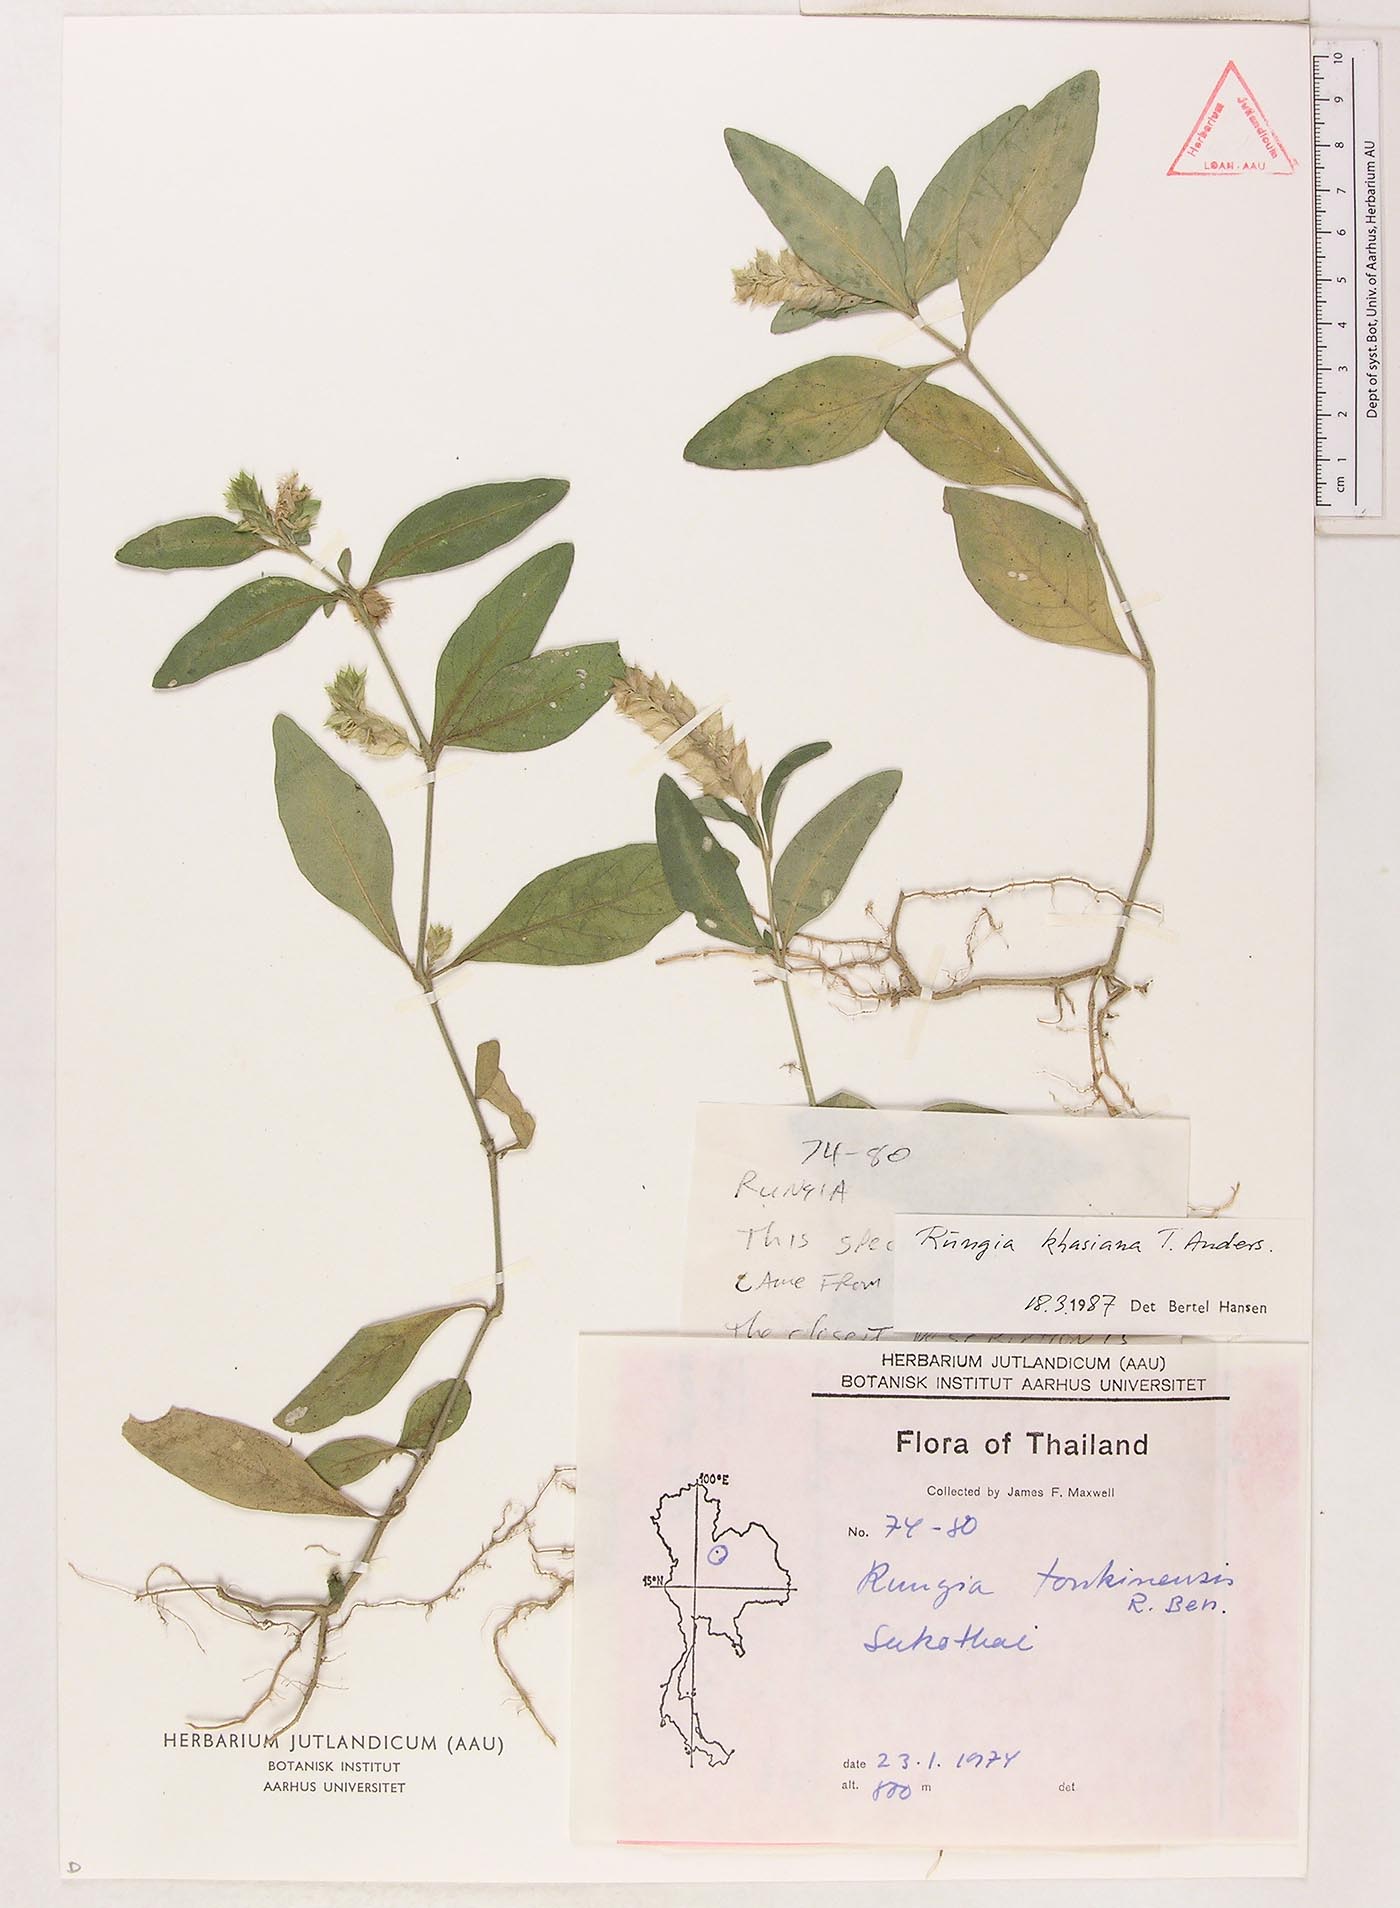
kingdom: Plantae
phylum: Tracheophyta
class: Magnoliopsida
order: Lamiales
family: Acanthaceae
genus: Rungia
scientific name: Rungia maculata
